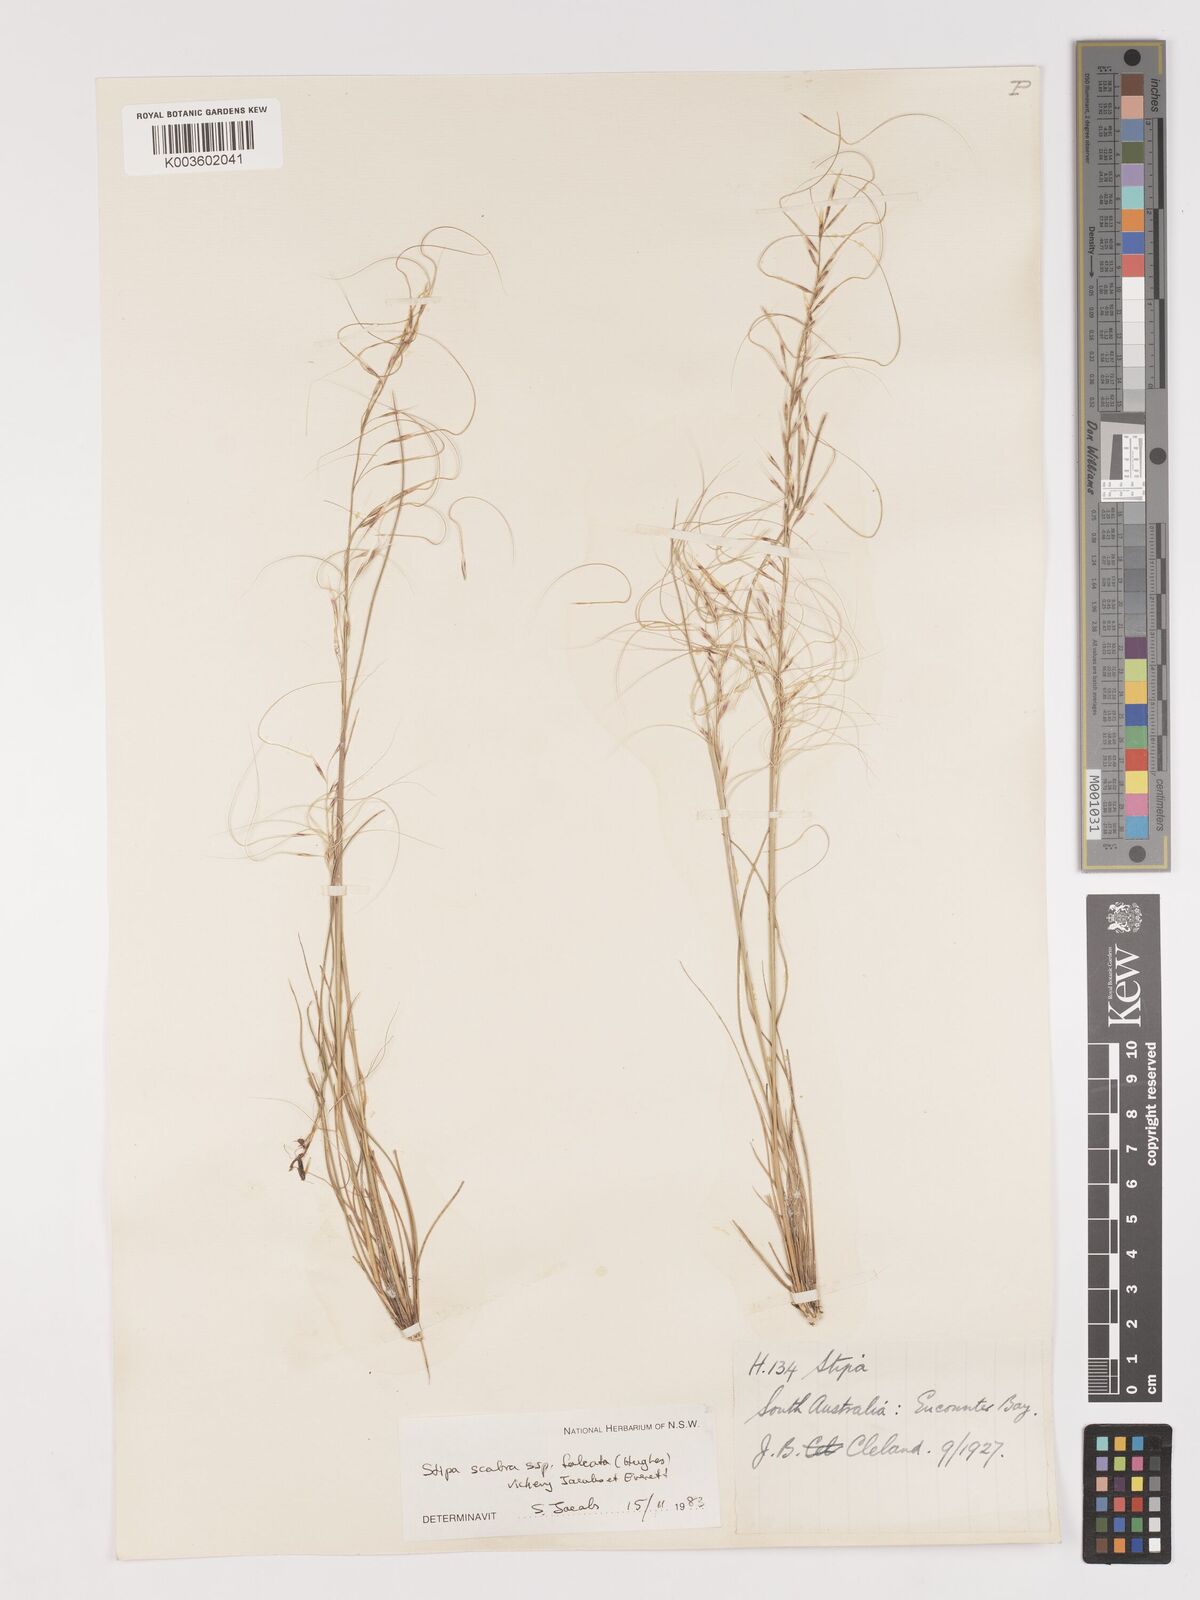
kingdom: Plantae
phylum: Tracheophyta
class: Liliopsida
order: Poales
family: Poaceae
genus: Austrostipa
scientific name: Austrostipa scabra
